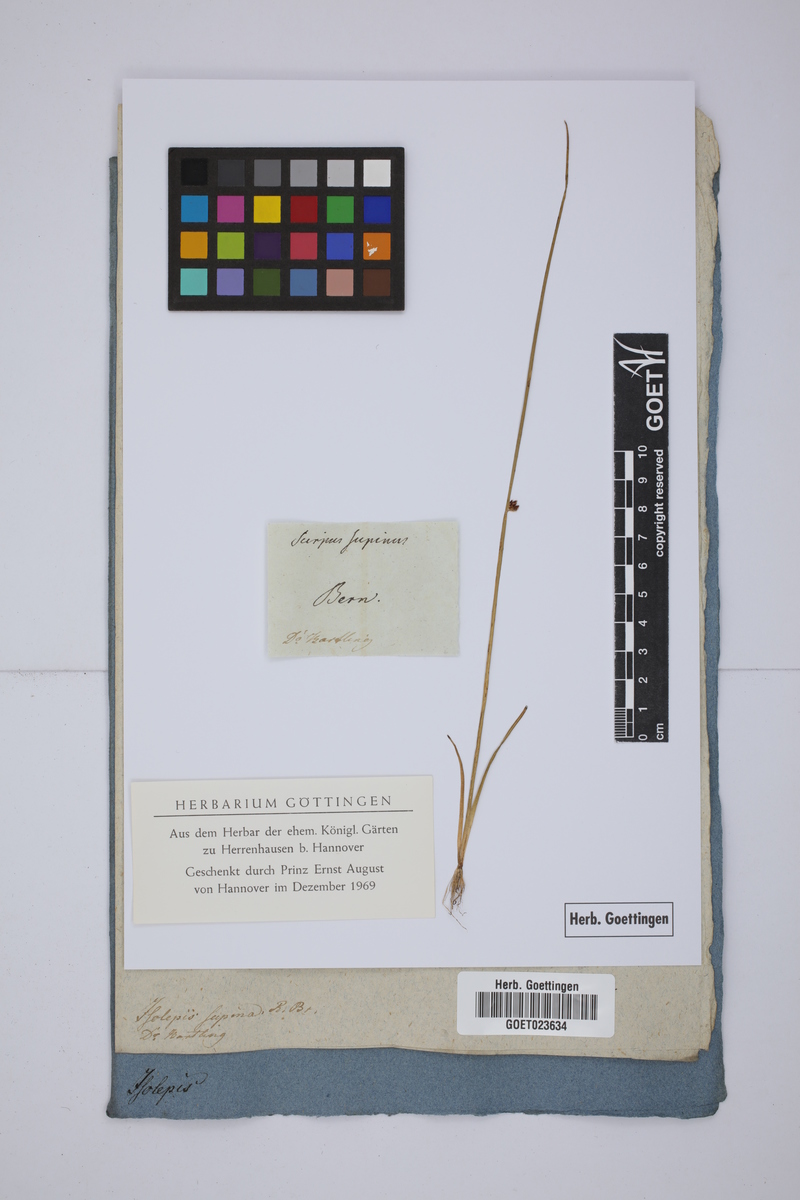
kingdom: Plantae
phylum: Tracheophyta
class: Liliopsida
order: Poales
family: Cyperaceae
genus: Schoenoplectiella
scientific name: Schoenoplectiella supina
